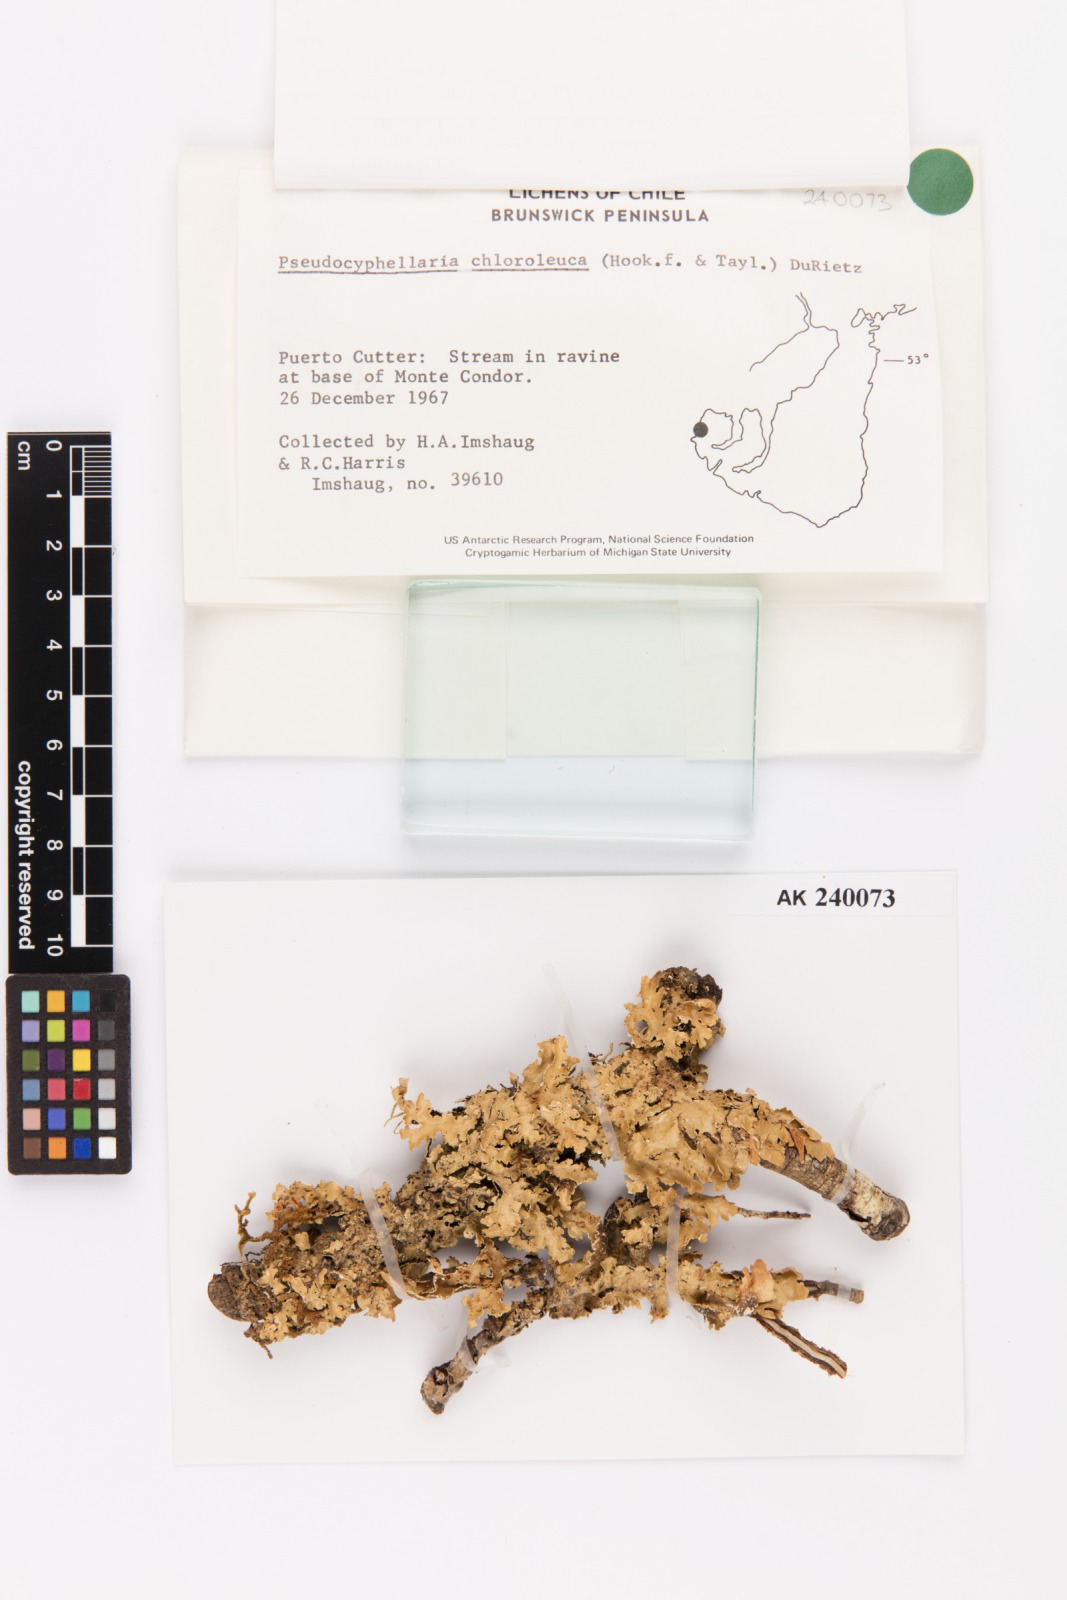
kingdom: Fungi
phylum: Ascomycota
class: Lecanoromycetes
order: Peltigerales
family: Lobariaceae
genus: Pseudocyphellaria
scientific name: Pseudocyphellaria chloroleuca
